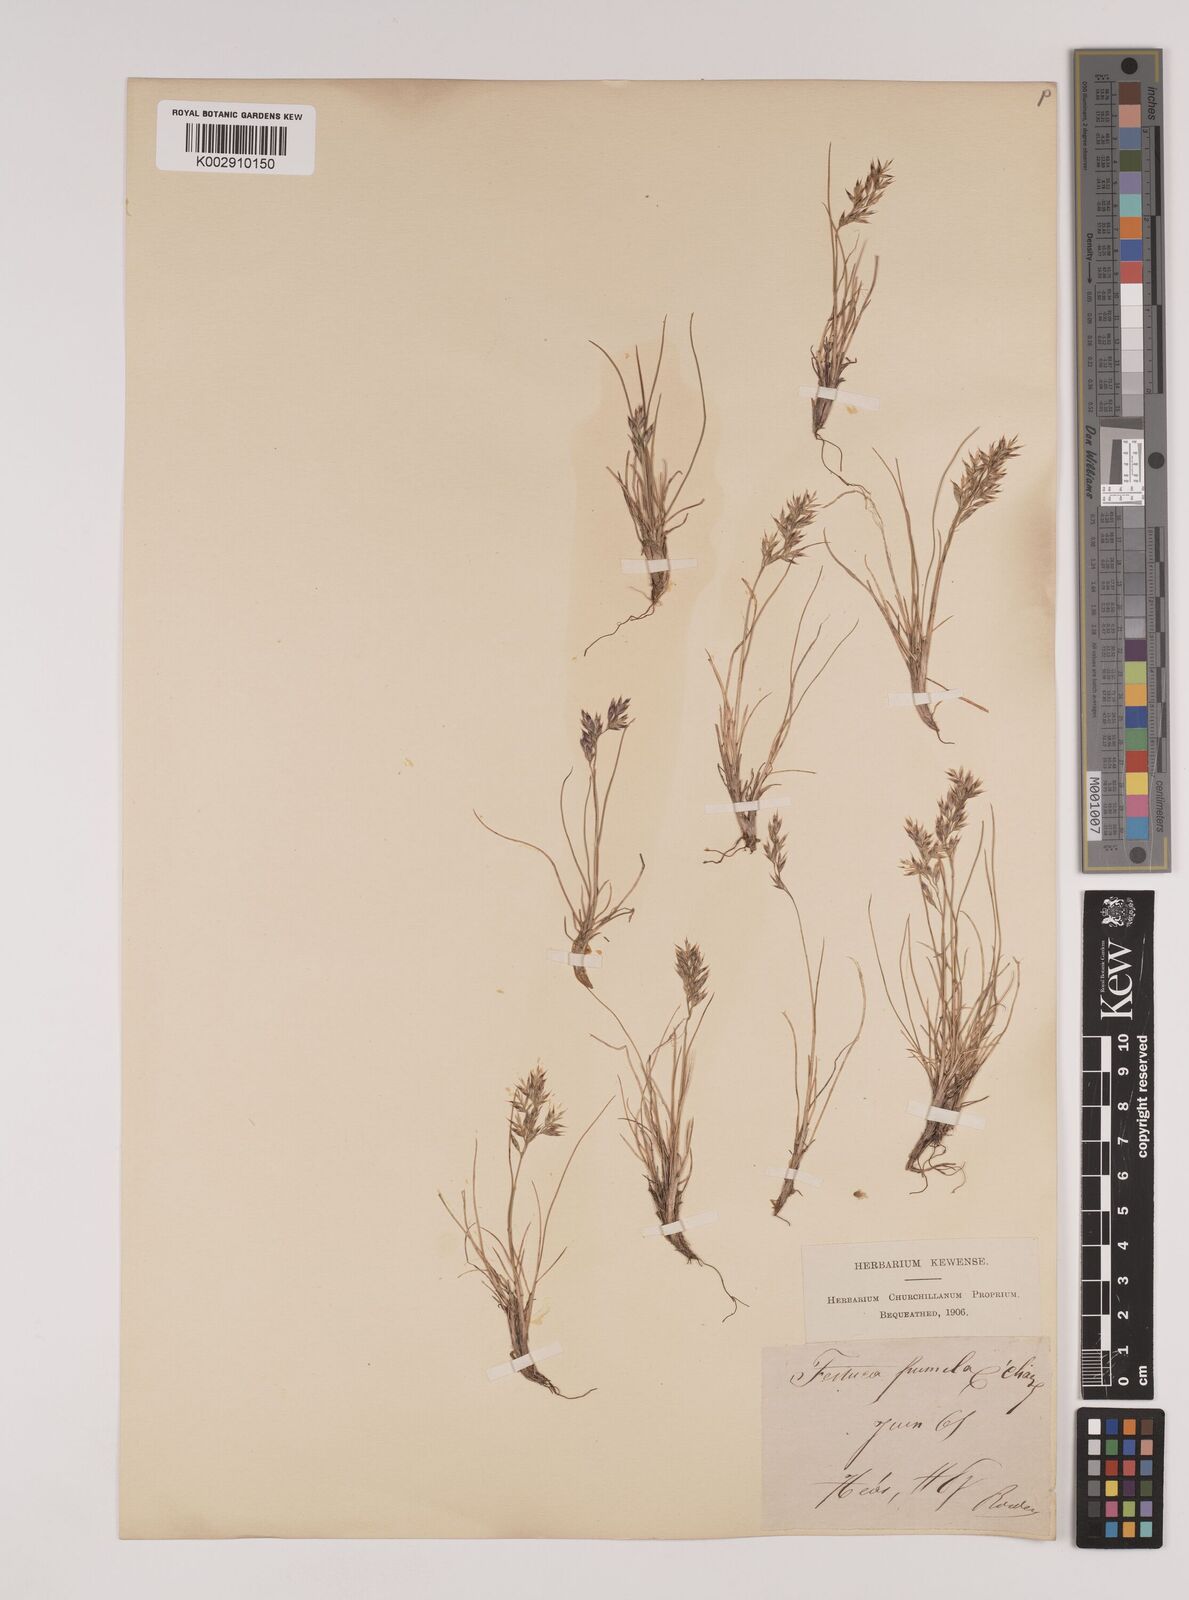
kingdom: Plantae
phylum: Tracheophyta
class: Liliopsida
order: Poales
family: Poaceae
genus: Festuca
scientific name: Festuca
